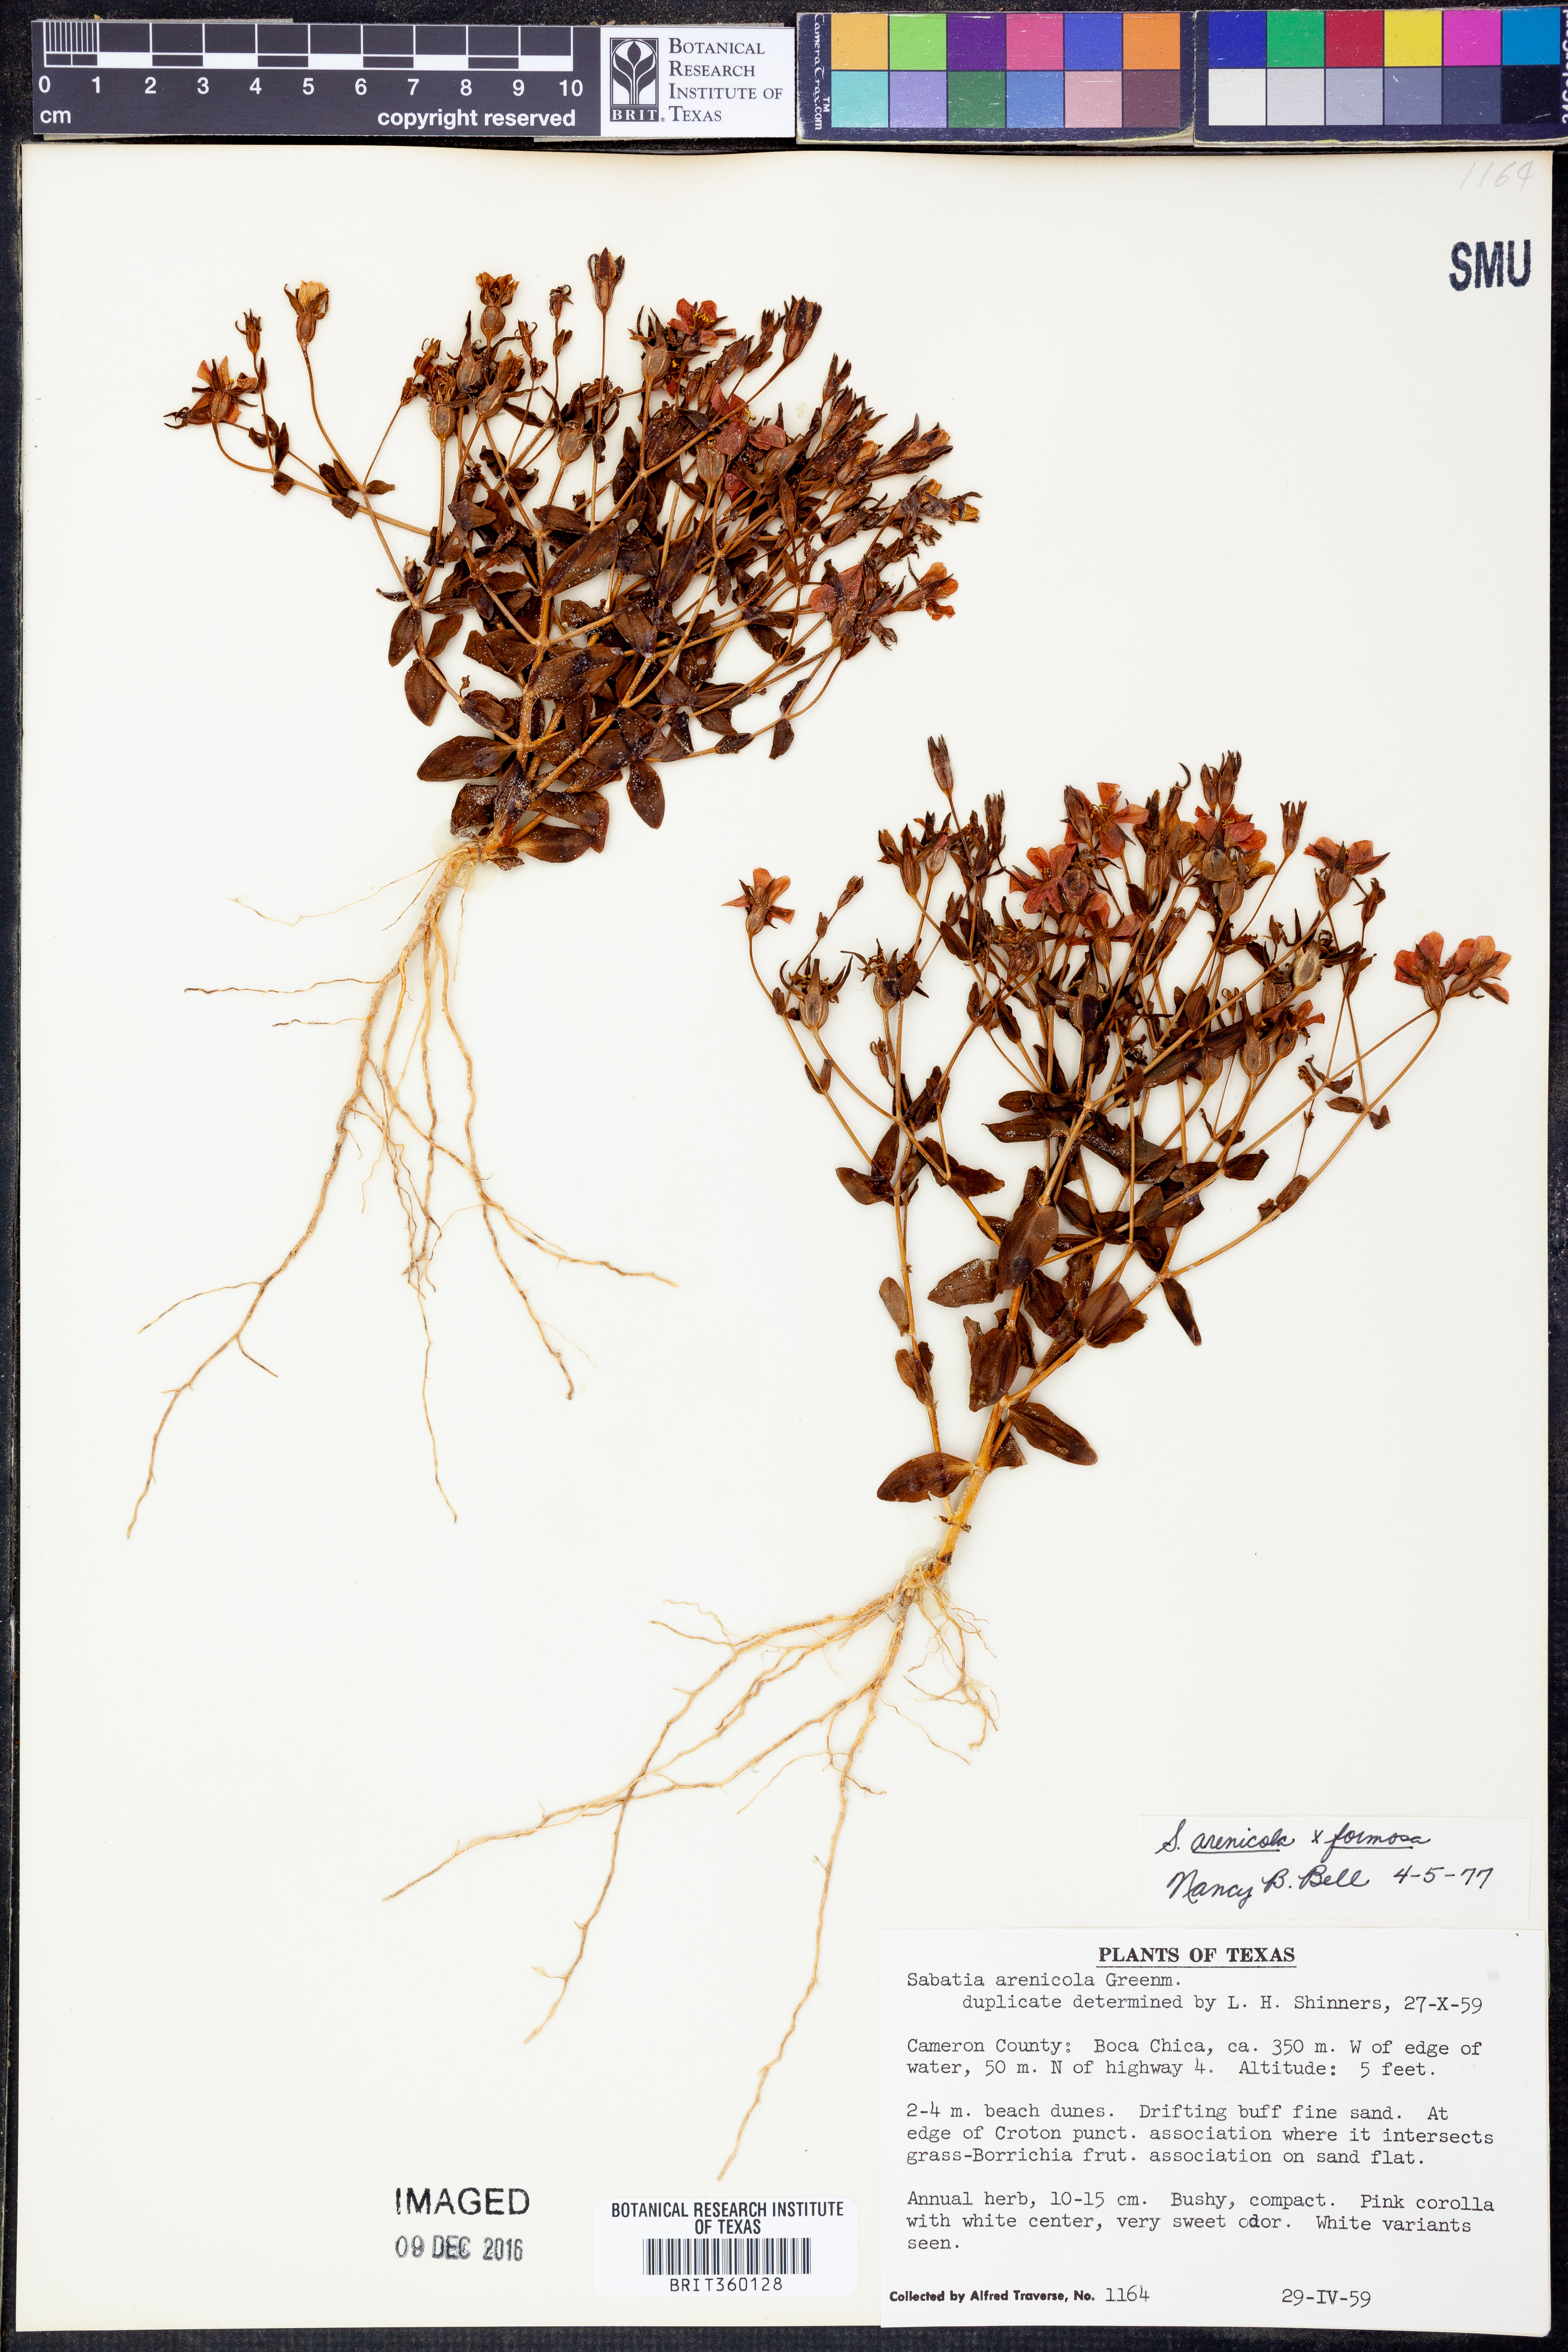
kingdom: Plantae
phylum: Tracheophyta
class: Magnoliopsida
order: Gentianales
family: Gentianaceae
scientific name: Gentianaceae
